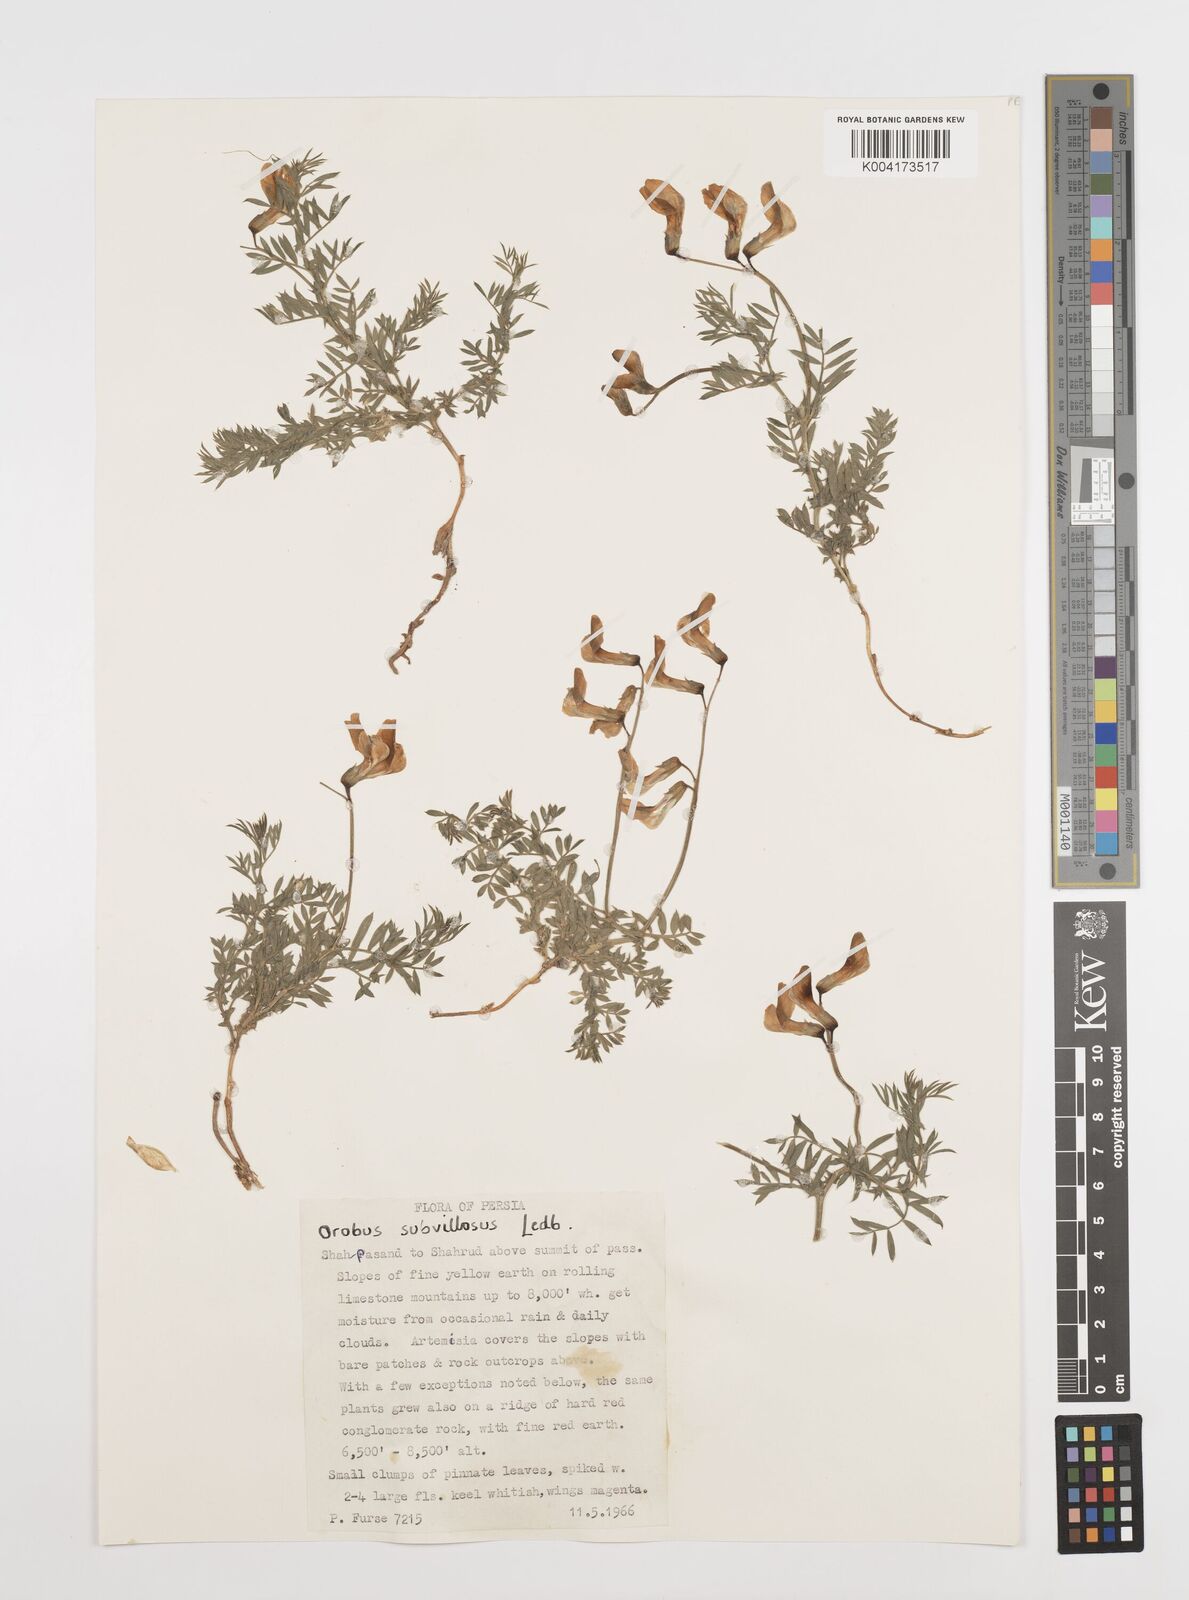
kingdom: Plantae
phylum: Tracheophyta
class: Magnoliopsida
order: Fabales
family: Fabaceae
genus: Vicia
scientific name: Vicia subvillosa
